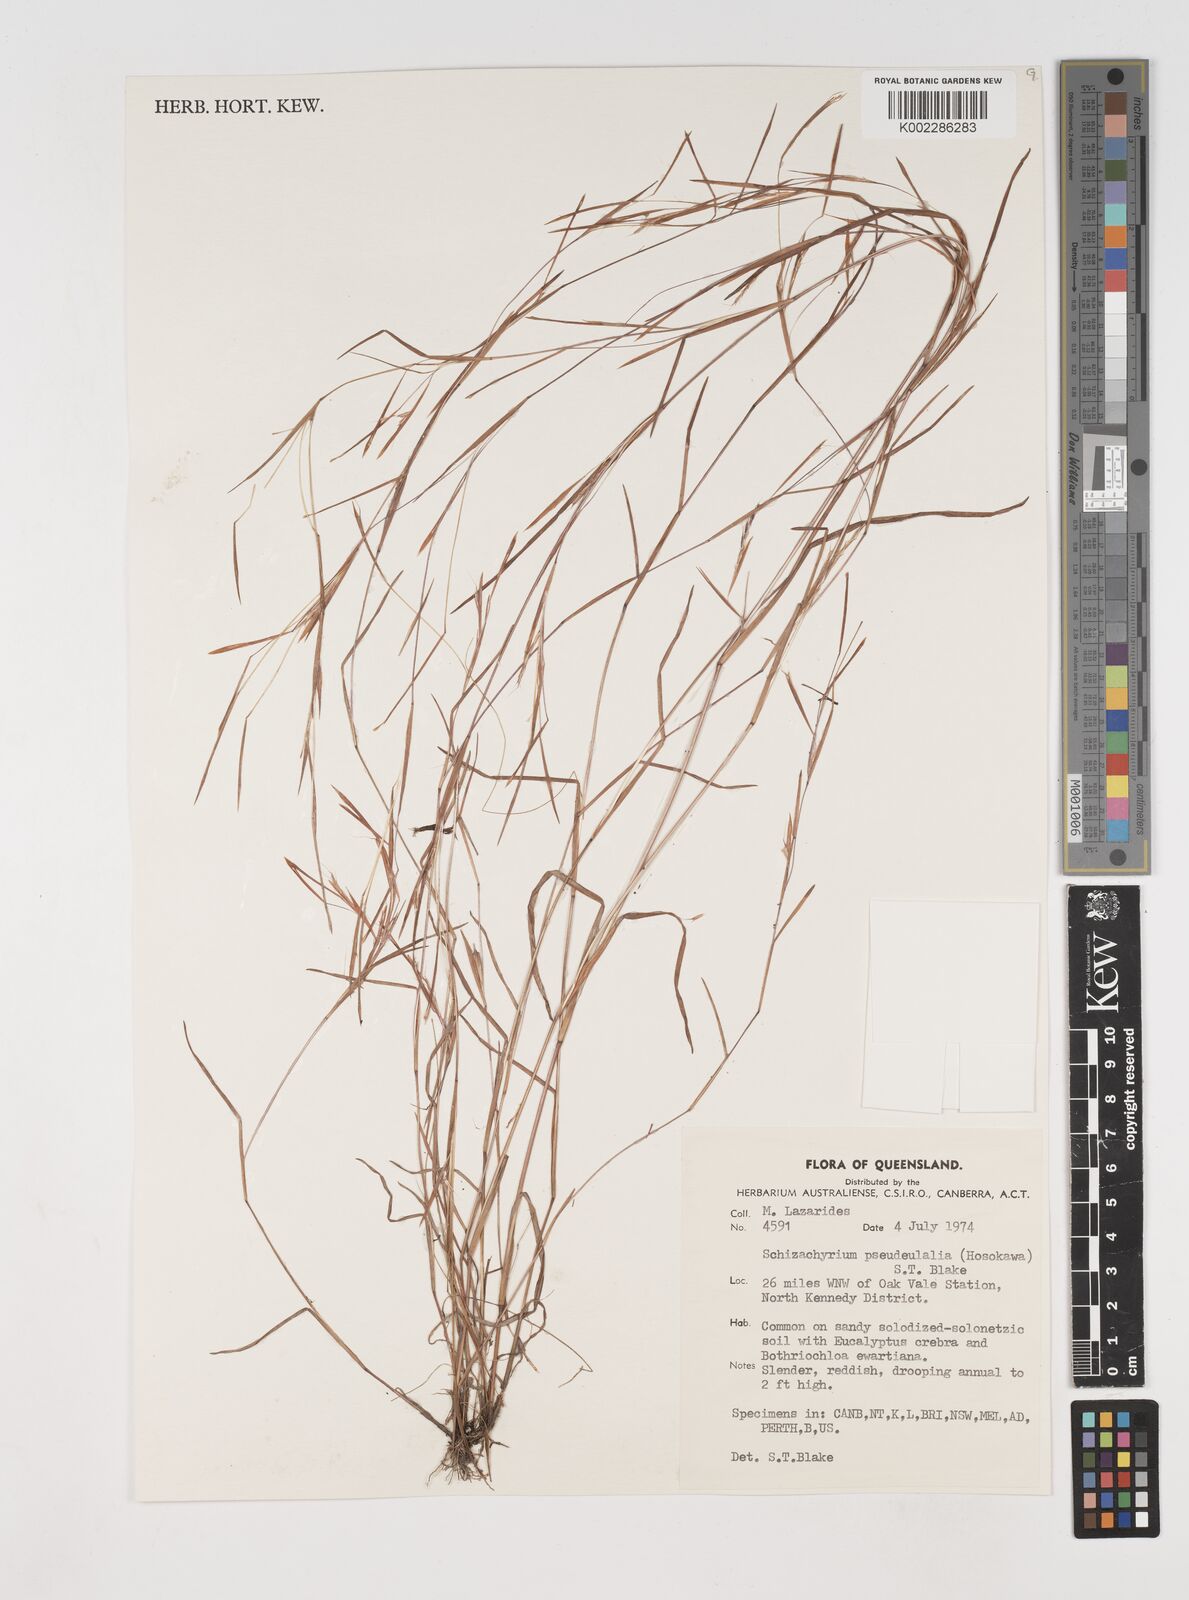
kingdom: Plantae
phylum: Tracheophyta
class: Liliopsida
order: Poales
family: Poaceae
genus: Schizachyrium
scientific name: Schizachyrium pseudeulalia
